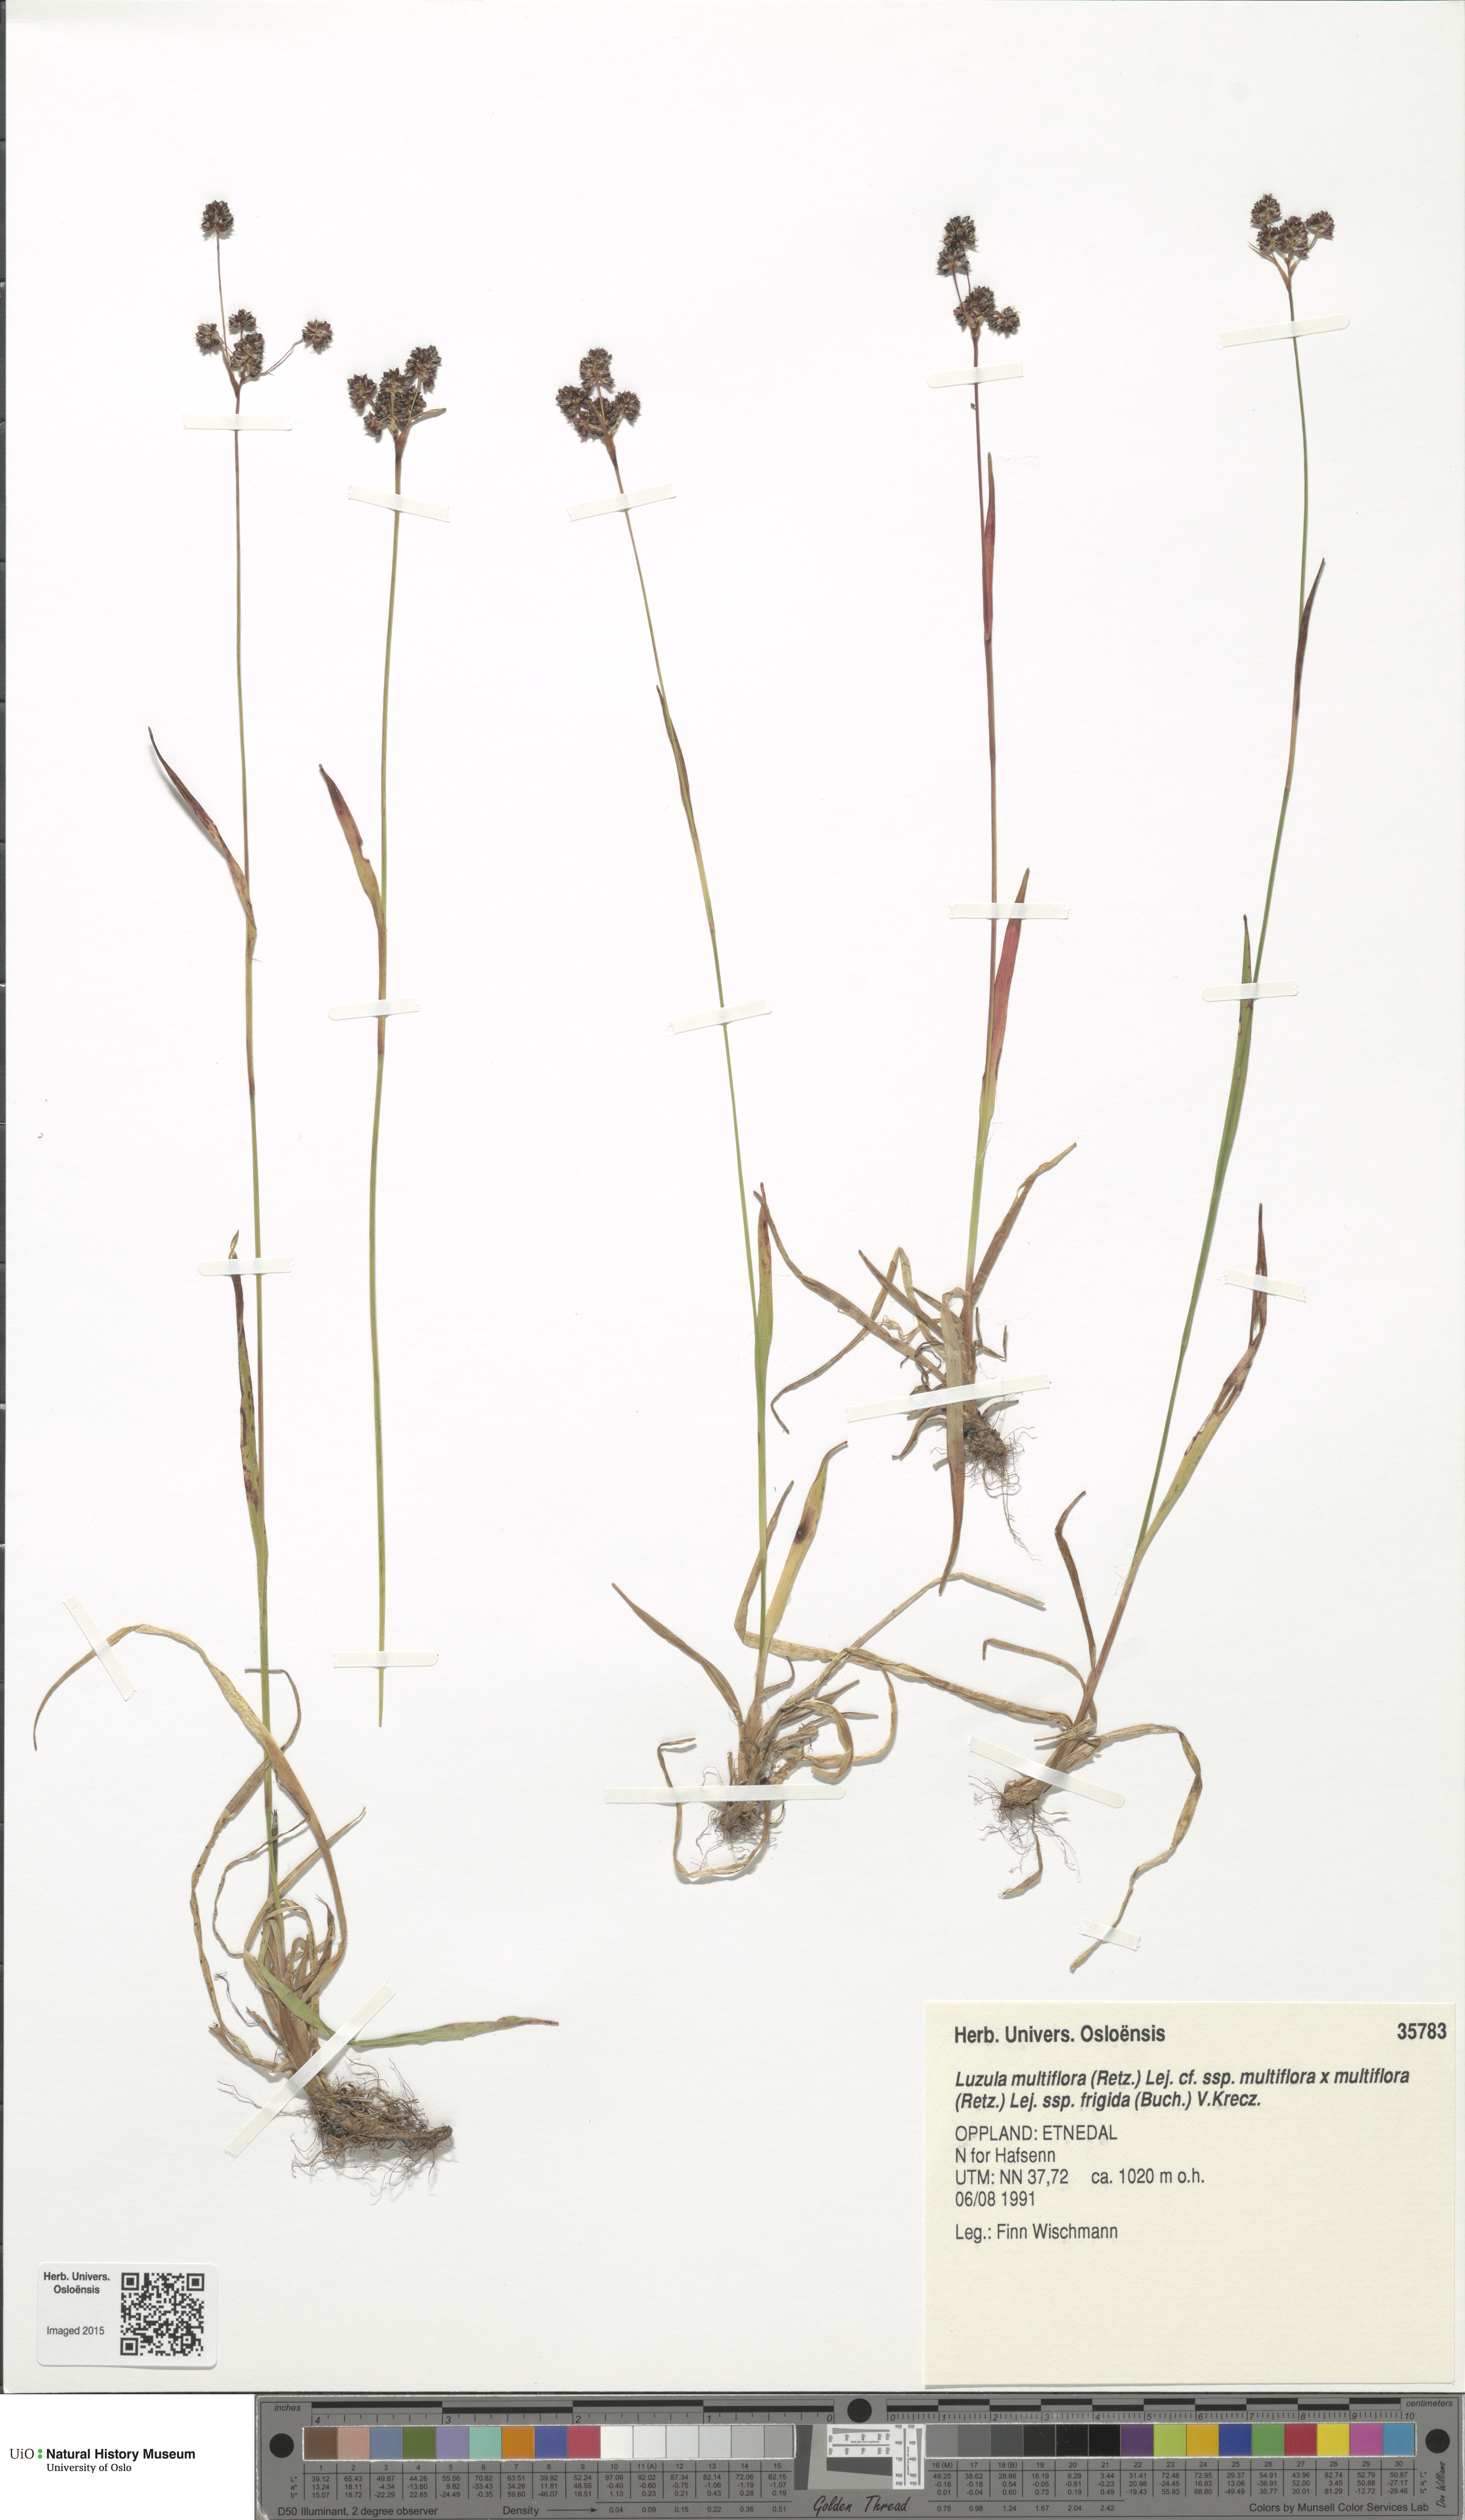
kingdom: Plantae
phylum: Tracheophyta
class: Liliopsida
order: Poales
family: Juncaceae
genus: Luzula
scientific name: Luzula
